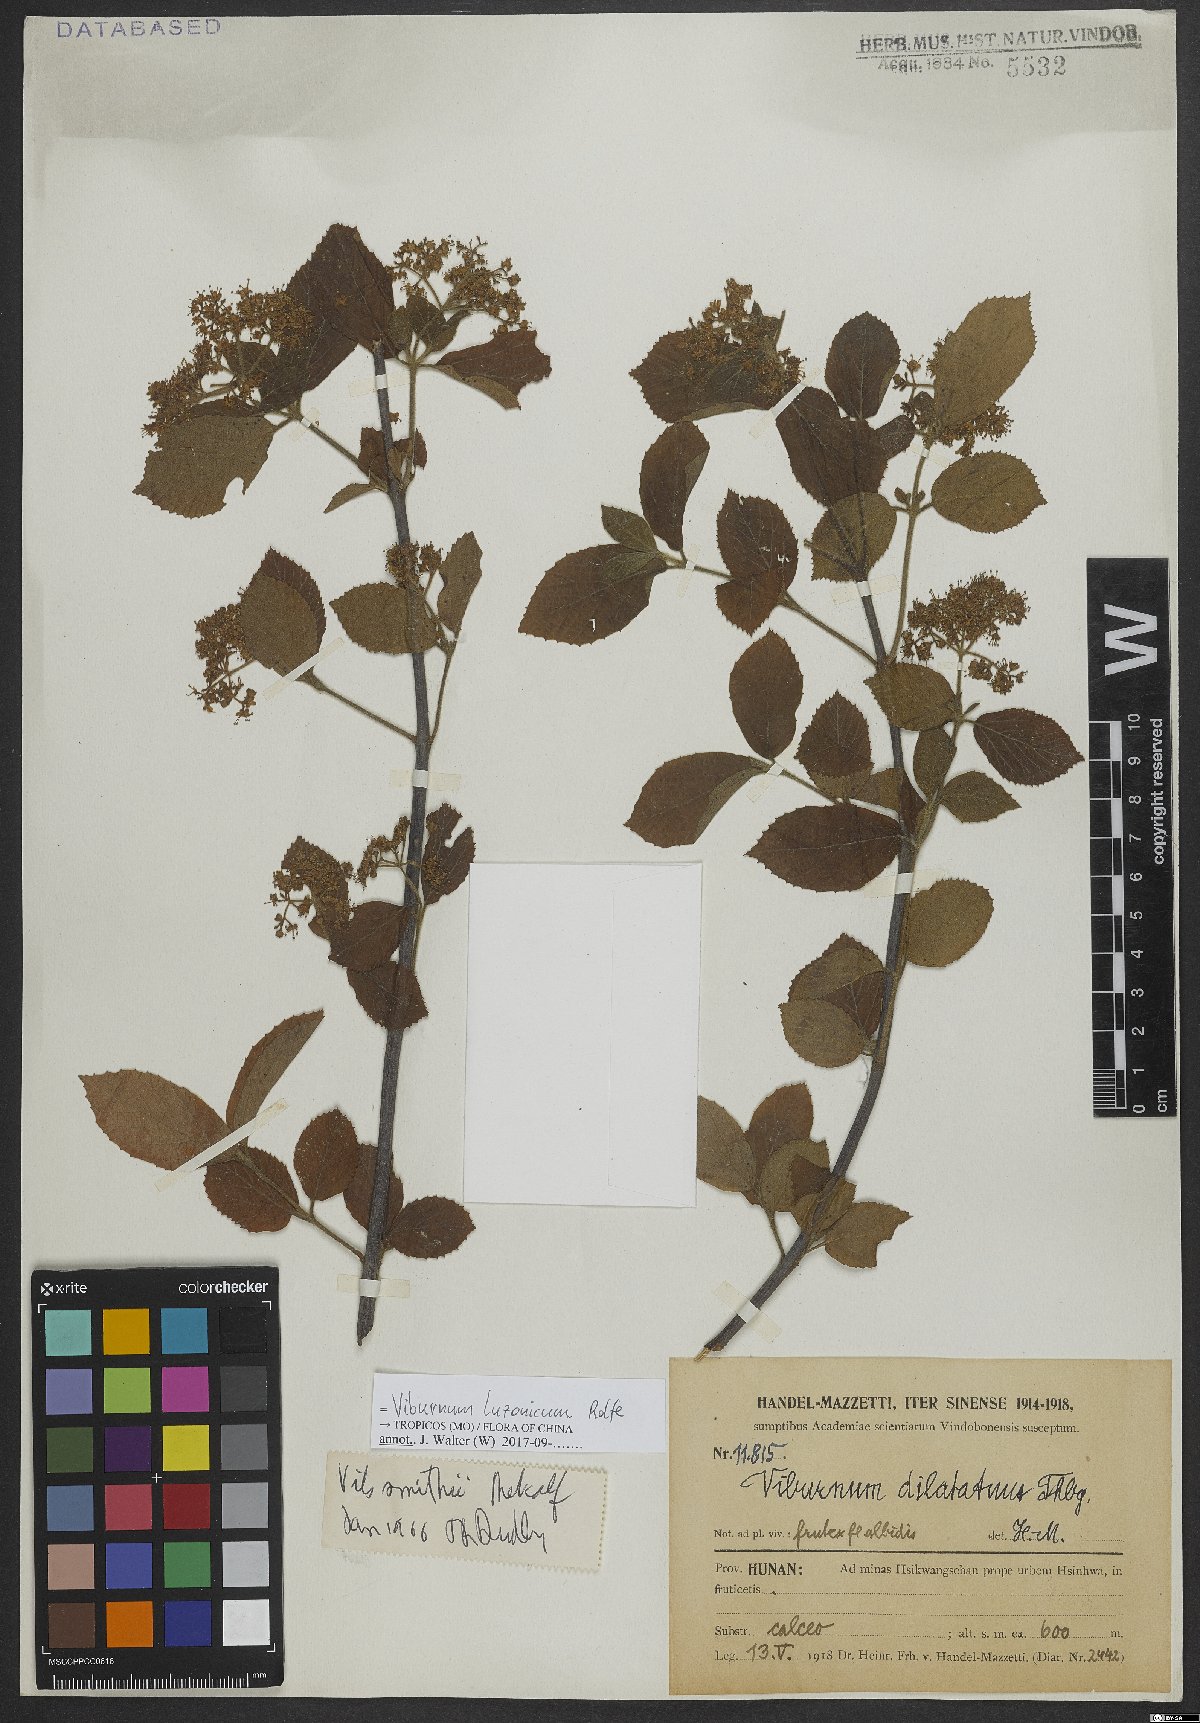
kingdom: Plantae
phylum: Tracheophyta
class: Magnoliopsida
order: Dipsacales
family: Viburnaceae
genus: Viburnum
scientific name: Viburnum luzonicum
